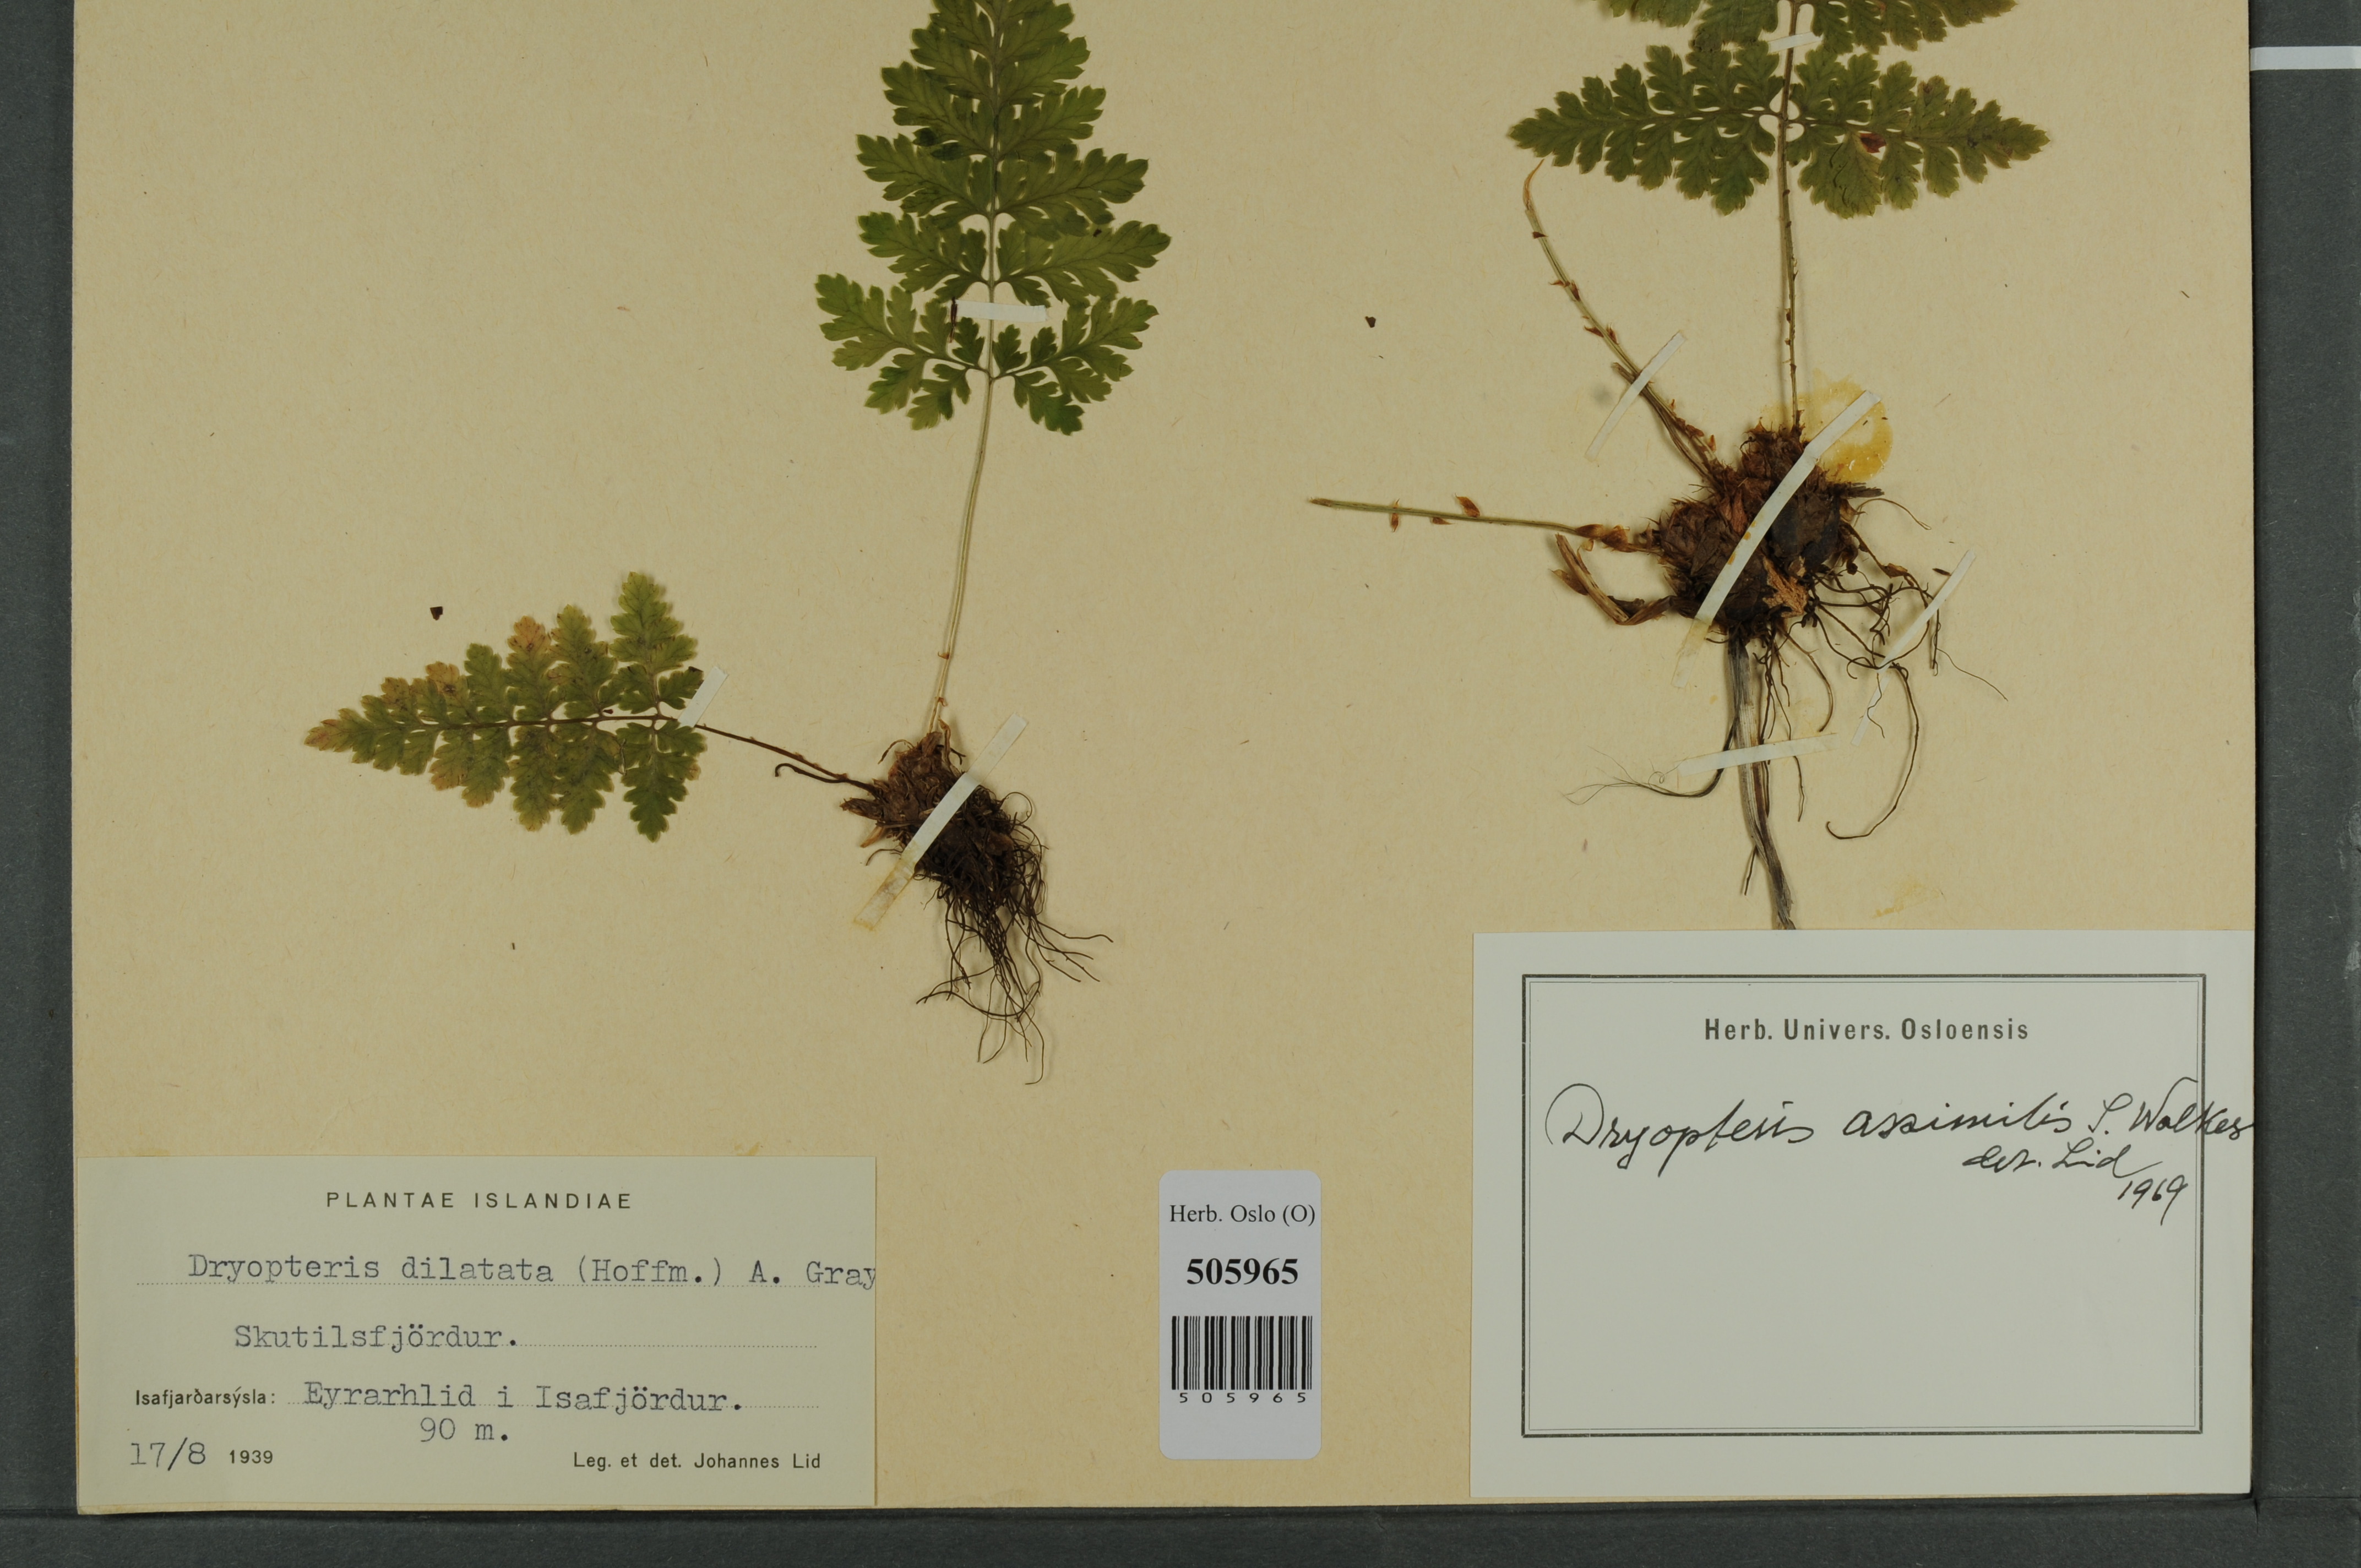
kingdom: Plantae
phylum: Tracheophyta
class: Polypodiopsida
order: Polypodiales
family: Dryopteridaceae
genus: Dryopteris
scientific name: Dryopteris expansa
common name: Northern buckler fern
